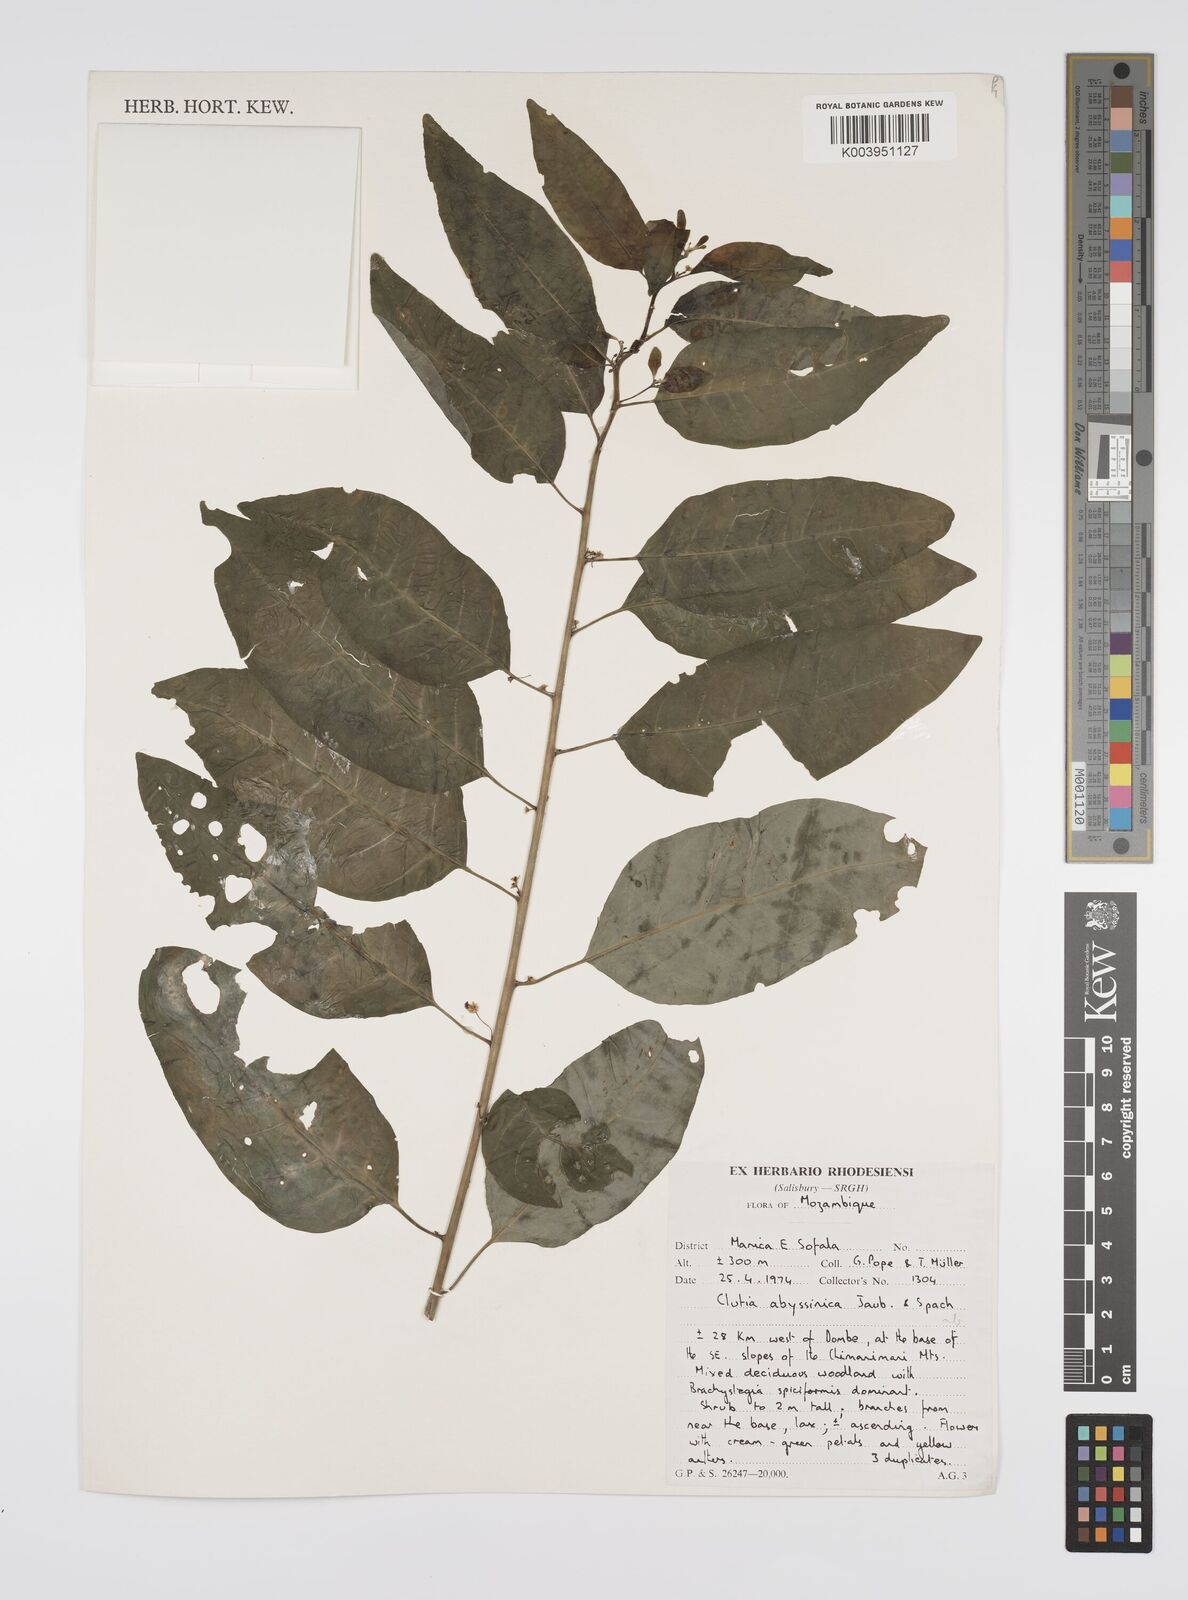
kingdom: Plantae
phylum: Tracheophyta
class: Magnoliopsida
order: Malpighiales
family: Peraceae
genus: Clutia
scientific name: Clutia abyssinica
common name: Large lightning bush
